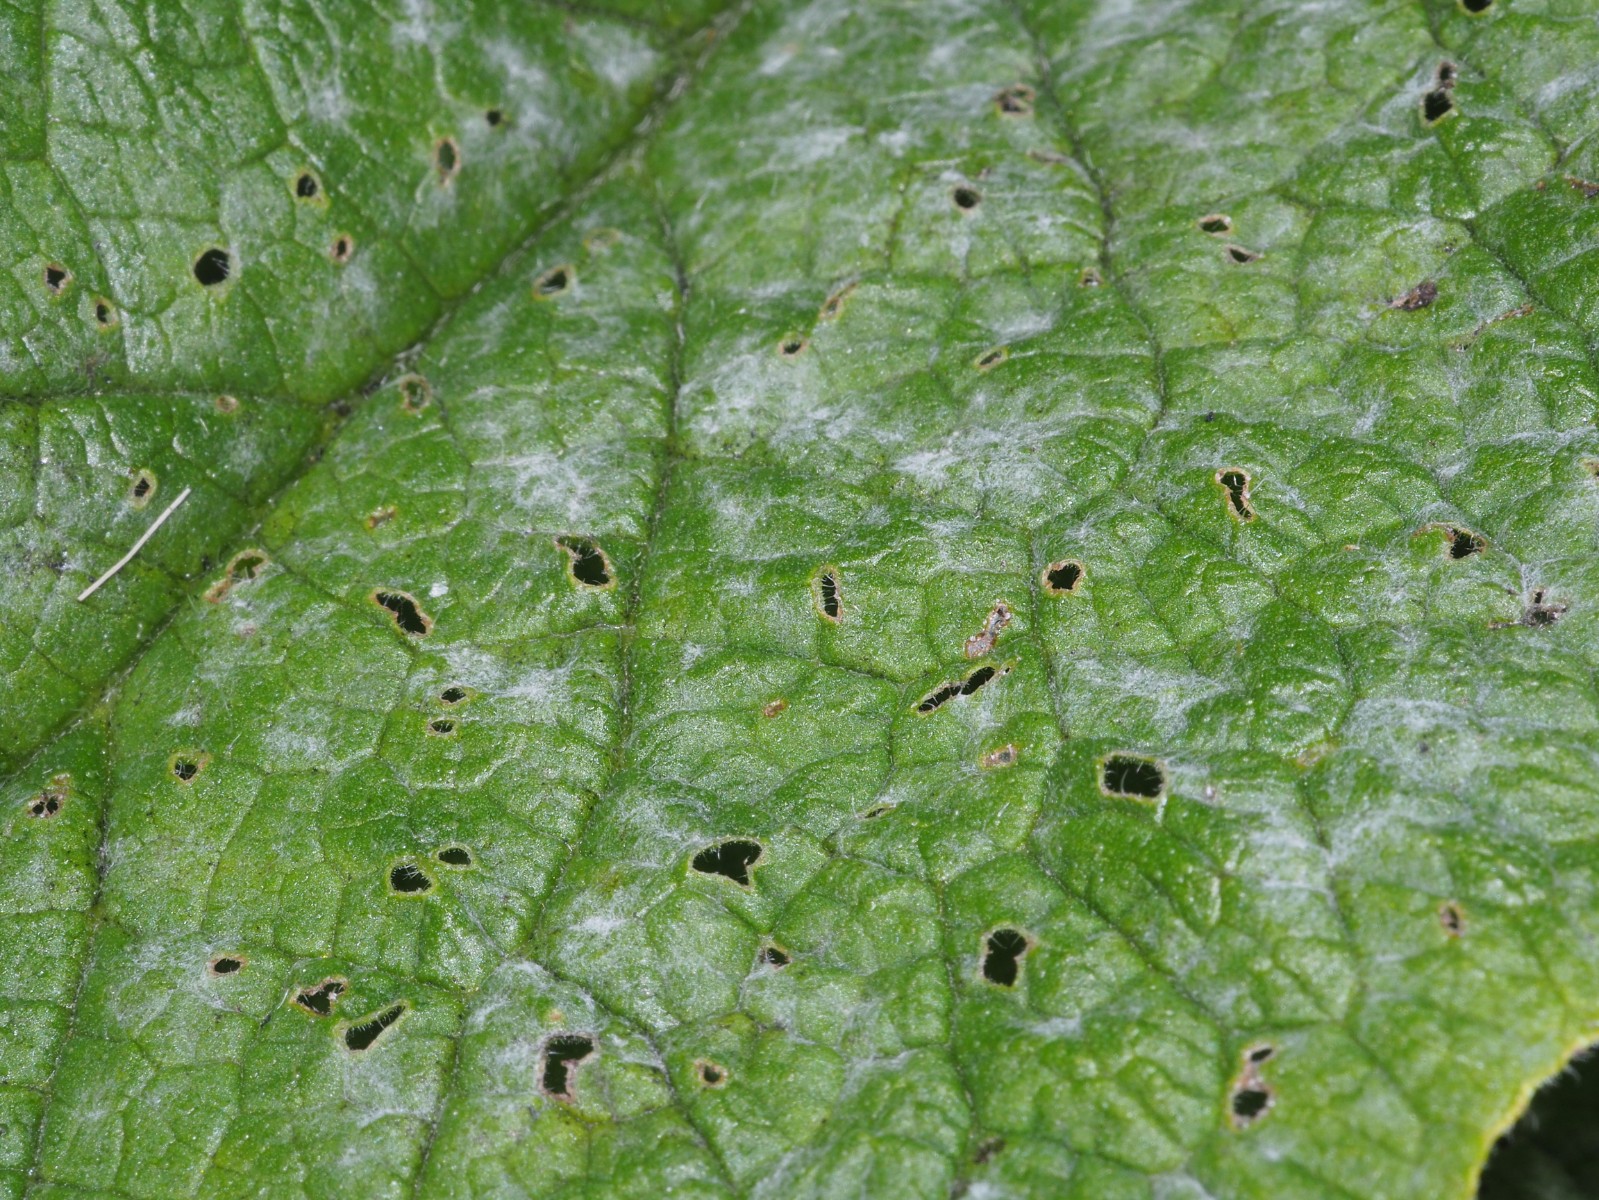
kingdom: Fungi
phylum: Ascomycota
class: Leotiomycetes
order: Helotiales
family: Erysiphaceae
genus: Golovinomyces
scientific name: Golovinomyces asperifoliorum
